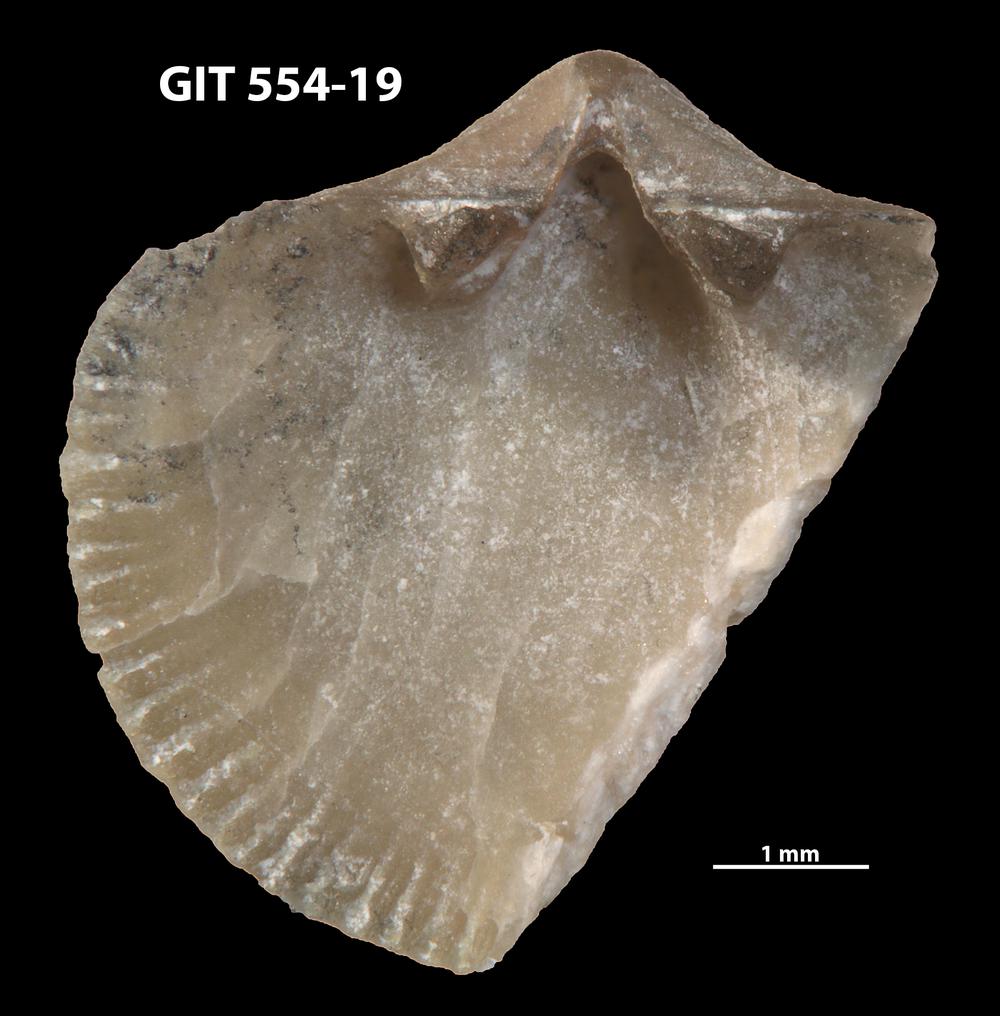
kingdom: Animalia
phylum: Brachiopoda
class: Rhynchonellata
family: Dalmanellidae
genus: Onniella
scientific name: Onniella trigona
